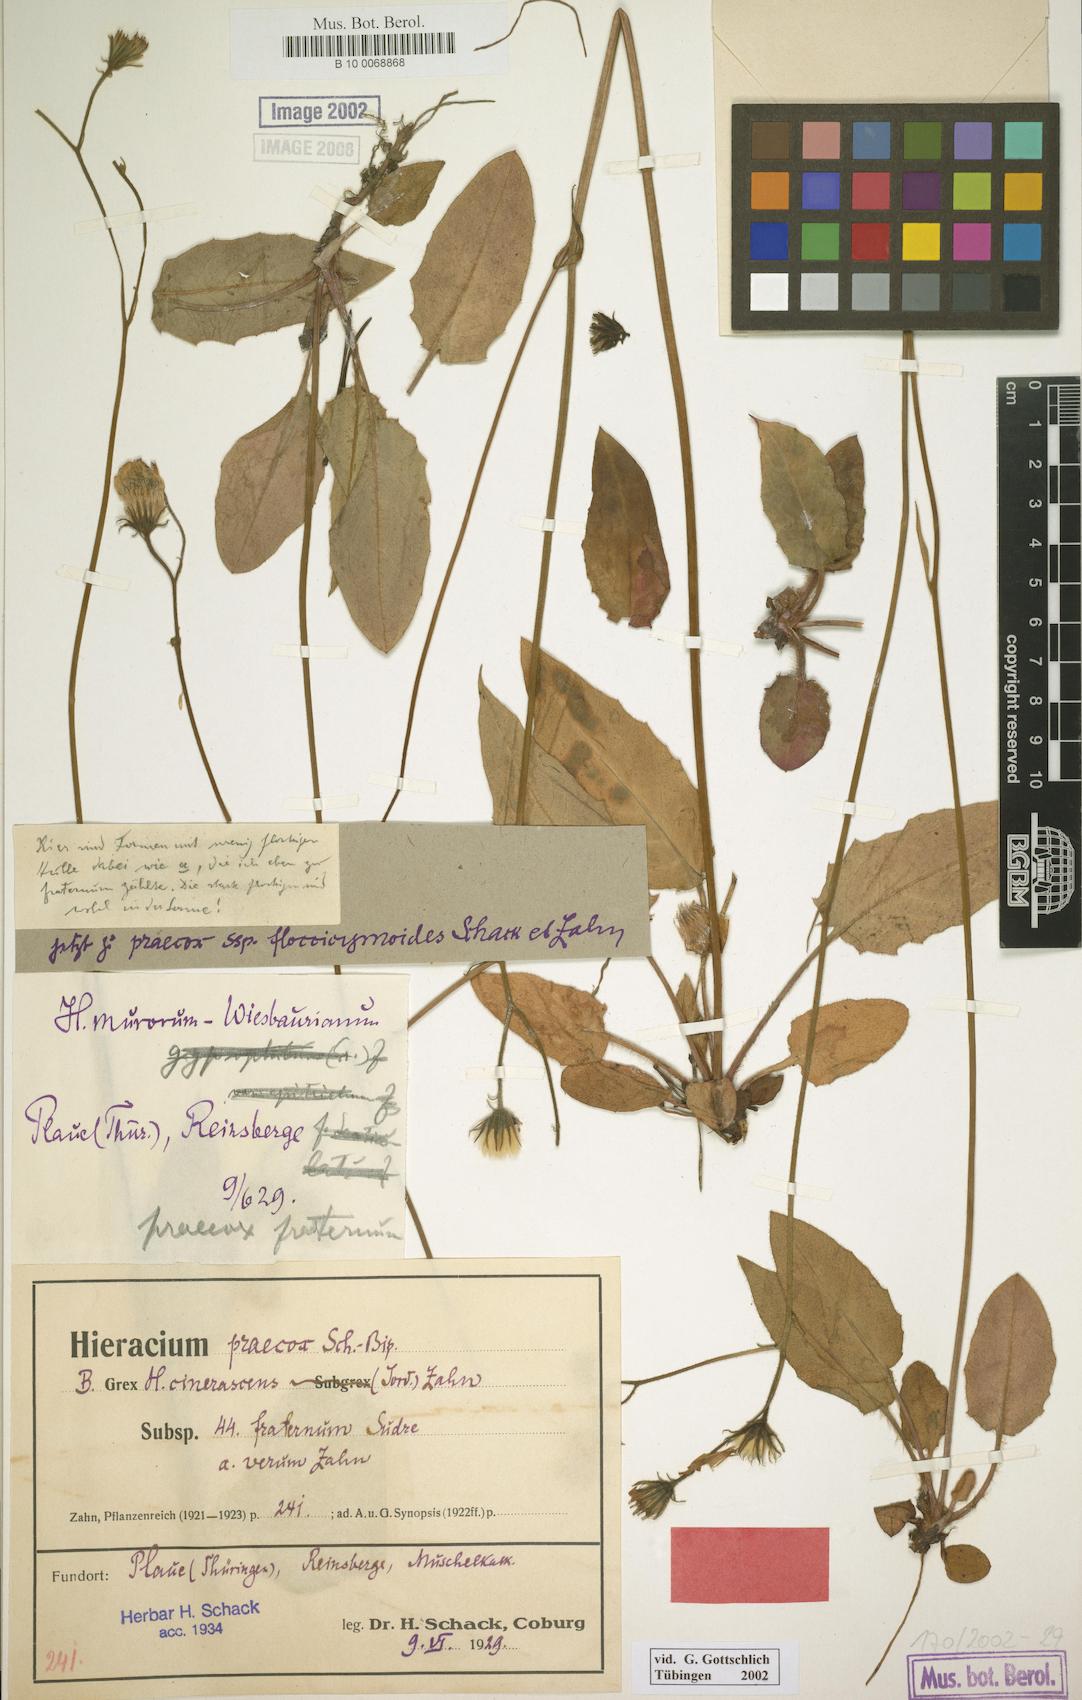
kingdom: Plantae
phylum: Tracheophyta
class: Magnoliopsida
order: Asterales
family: Asteraceae
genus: Hieracium
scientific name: Hieracium glaucinum
